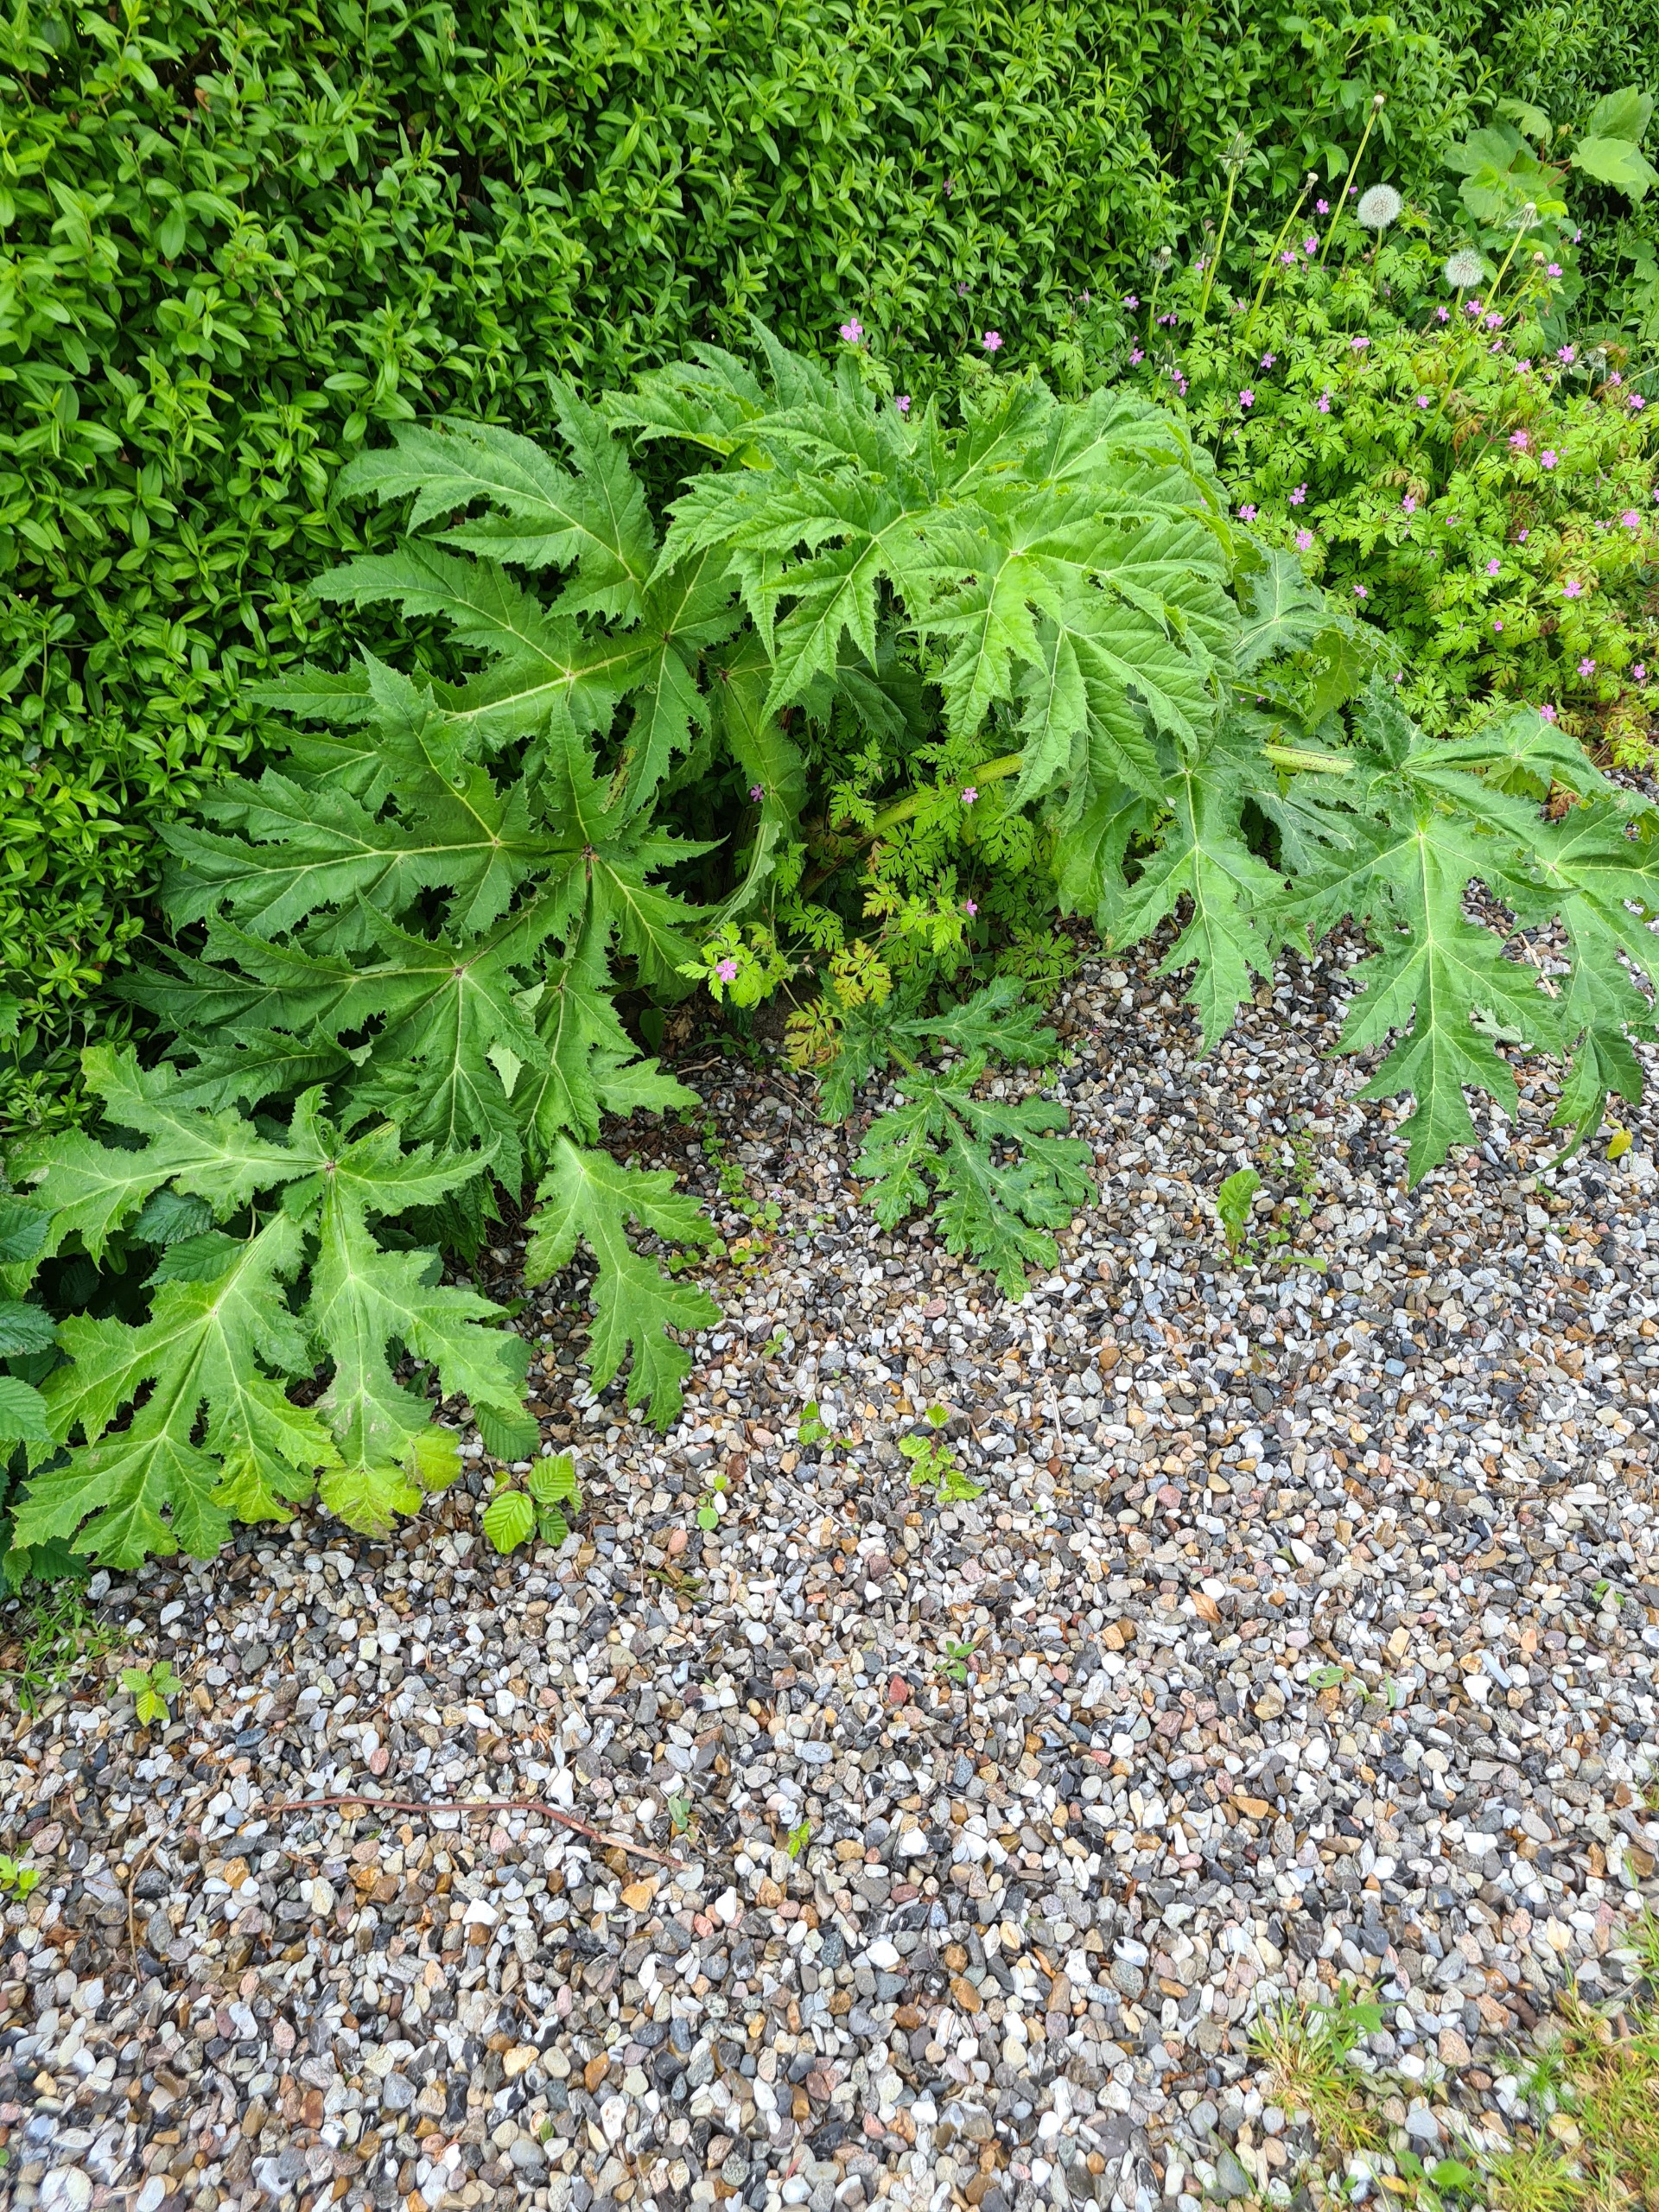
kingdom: Plantae
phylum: Tracheophyta
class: Magnoliopsida
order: Apiales
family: Apiaceae
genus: Heracleum
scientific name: Heracleum mantegazzianum
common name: Kæmpe-bjørneklo
